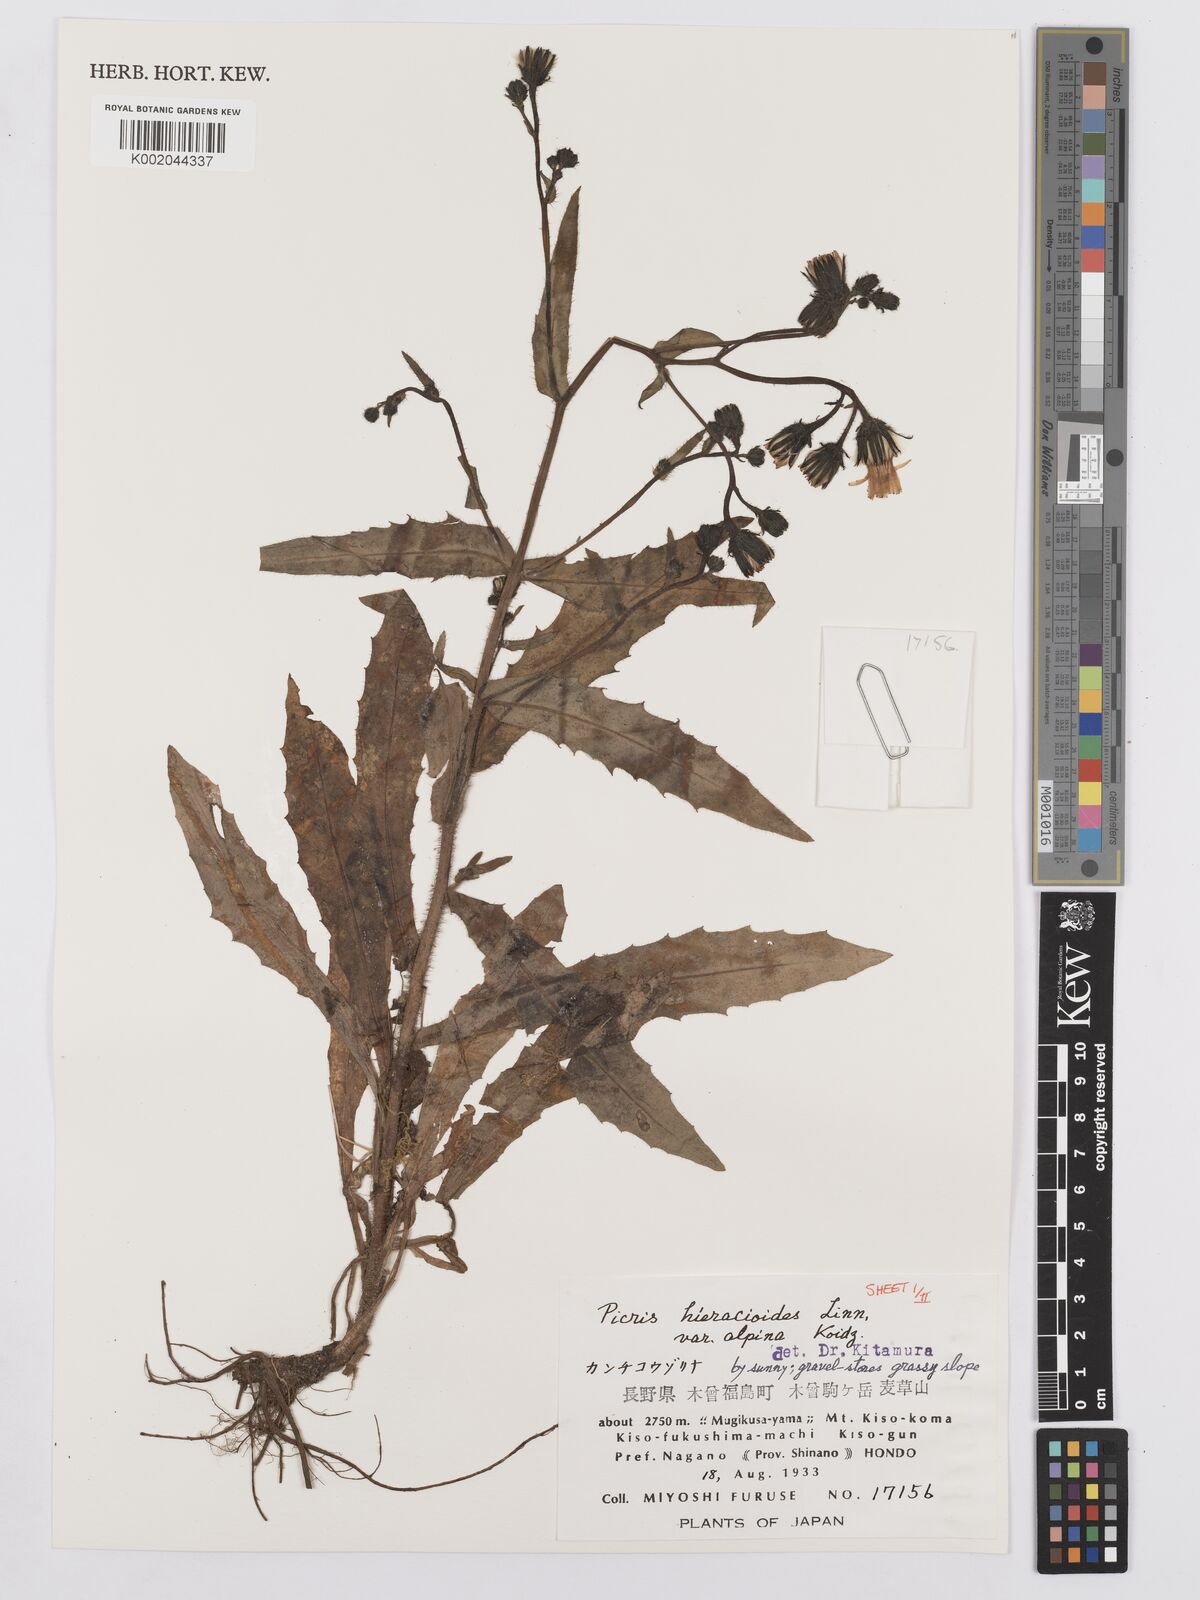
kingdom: Plantae
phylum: Tracheophyta
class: Magnoliopsida
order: Asterales
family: Asteraceae
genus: Picris
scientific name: Picris hieracioides
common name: Hawkweed oxtongue
